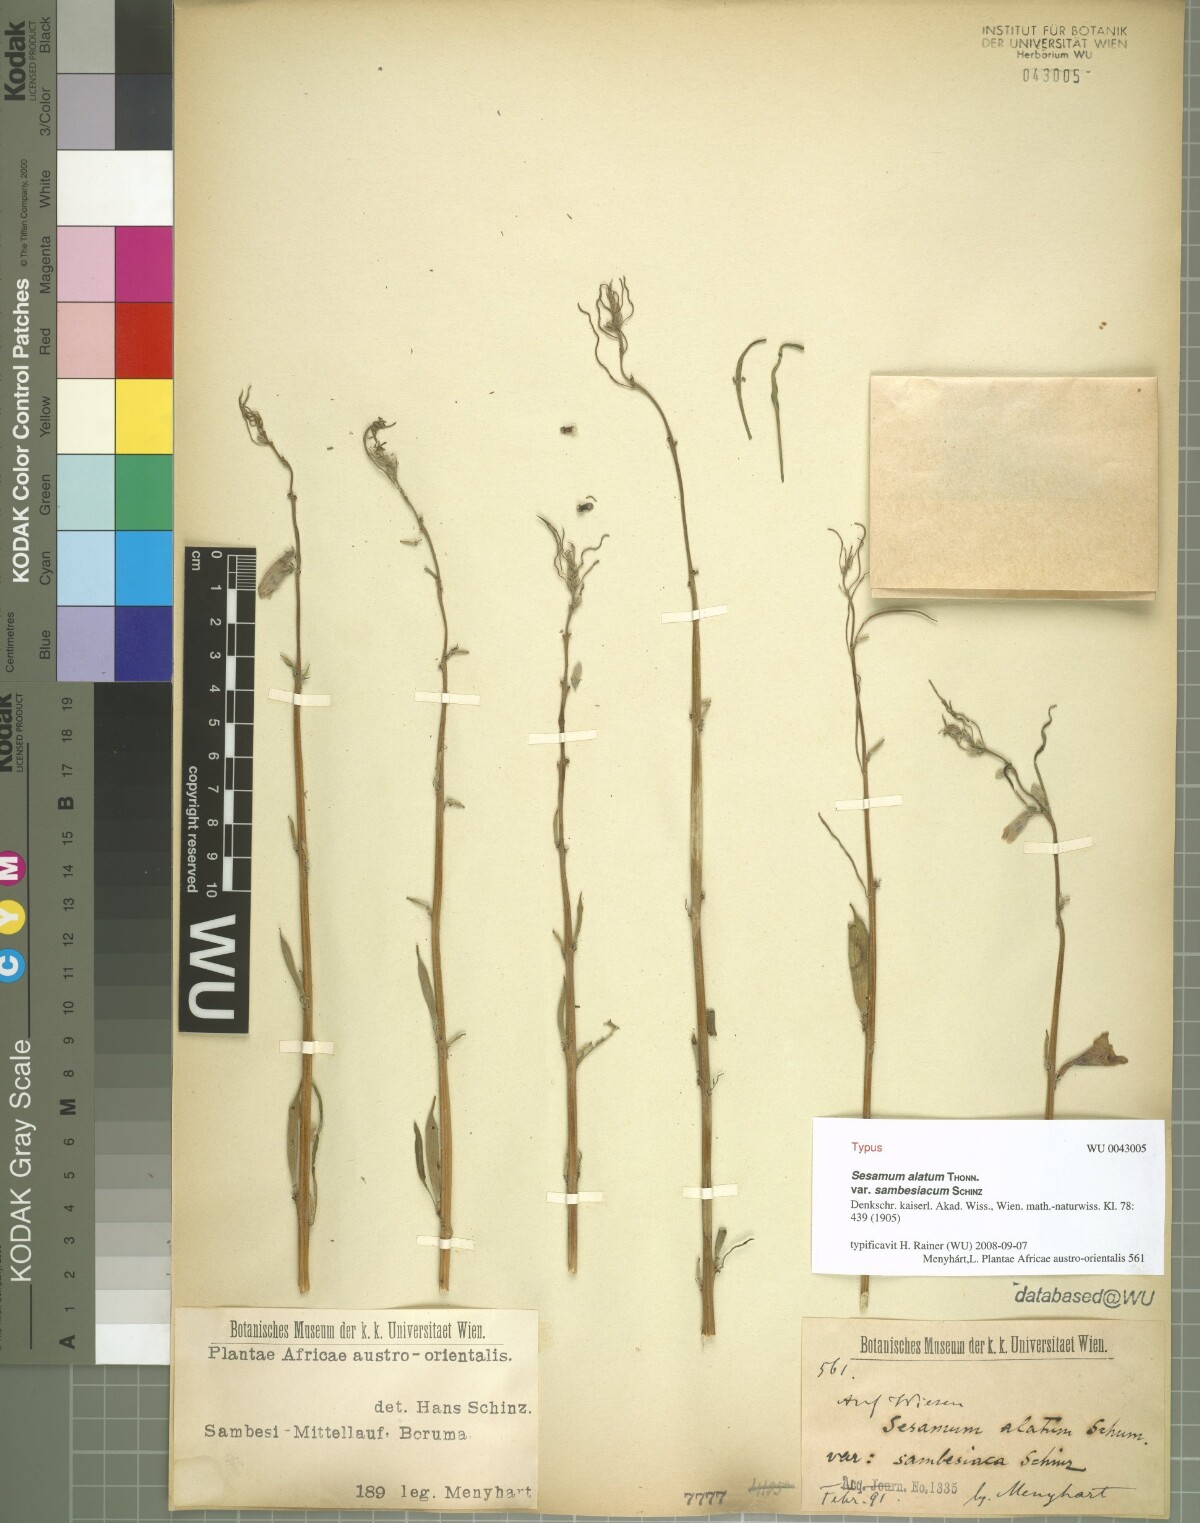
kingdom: Plantae
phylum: Tracheophyta
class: Magnoliopsida
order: Lamiales
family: Pedaliaceae
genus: Sesamum
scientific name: Sesamum alatum
